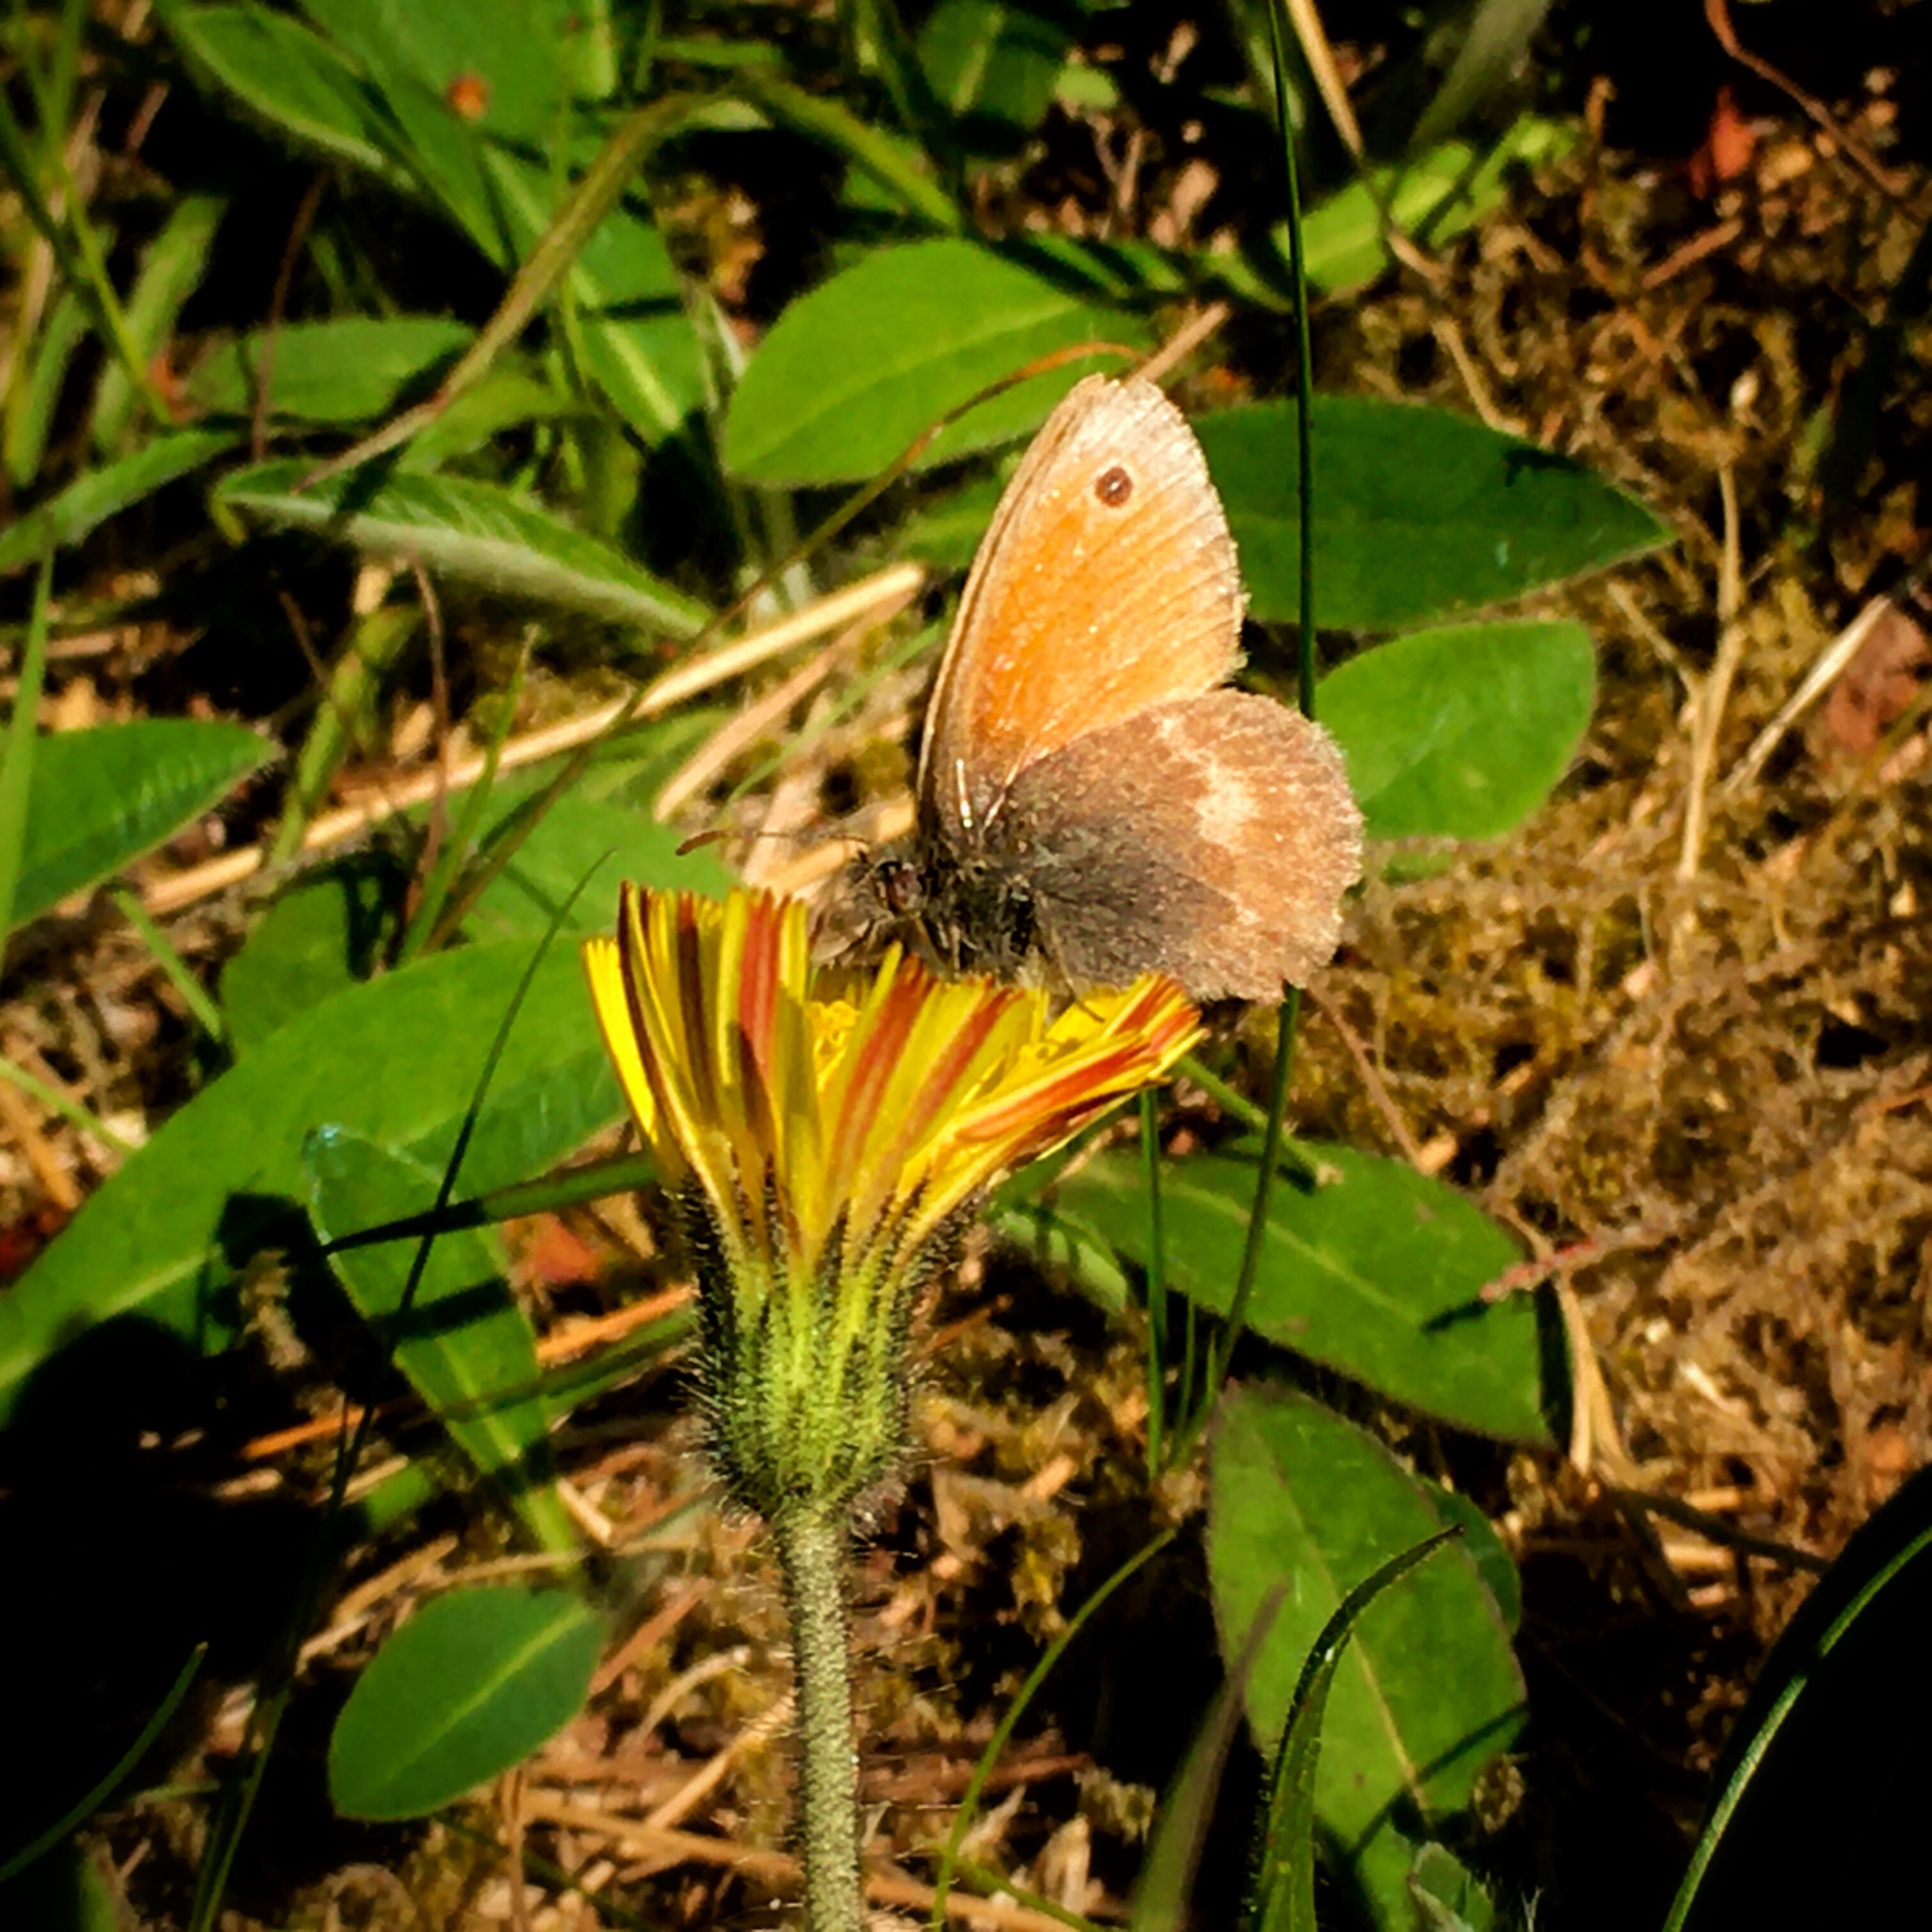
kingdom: Animalia
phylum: Arthropoda
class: Insecta
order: Lepidoptera
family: Nymphalidae
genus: Coenonympha
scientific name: Coenonympha pamphilus
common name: Okkergul randøje
